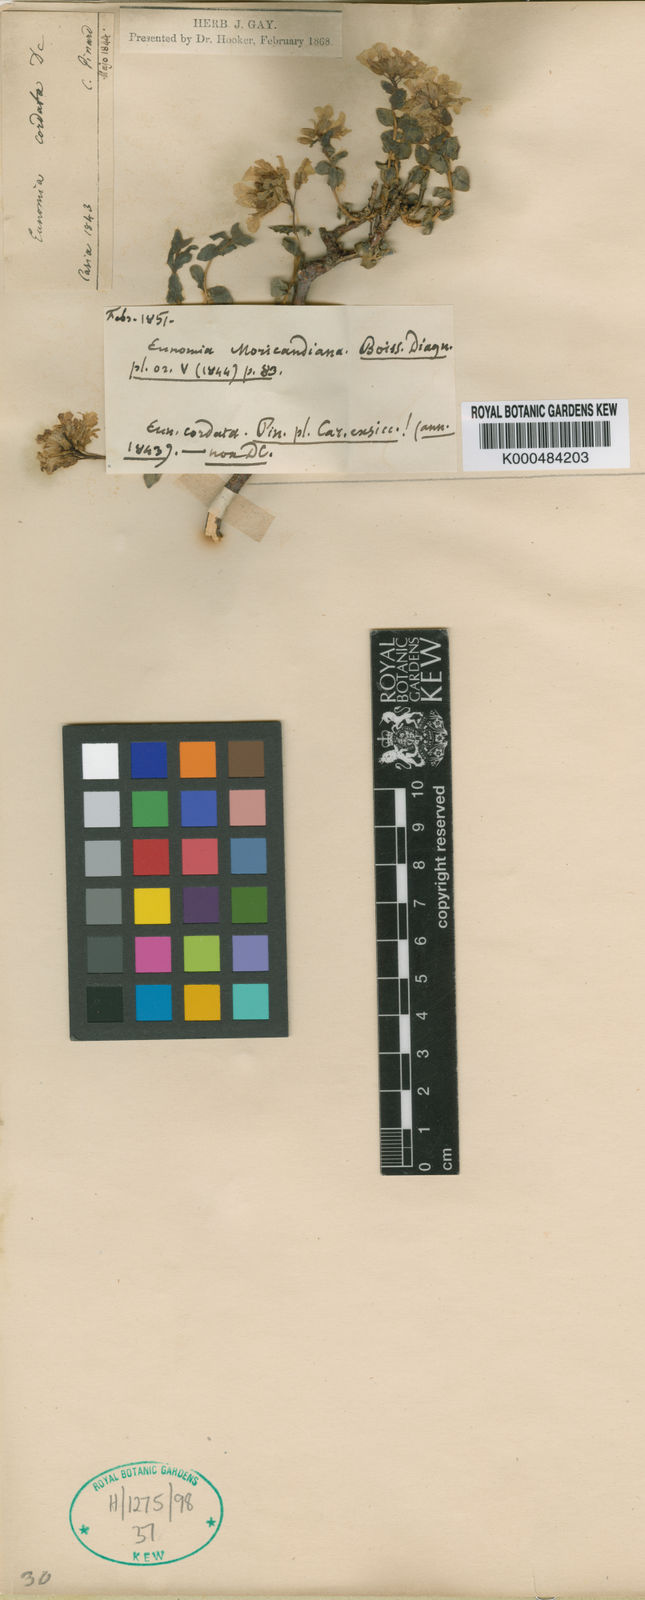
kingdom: Plantae
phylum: Tracheophyta
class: Magnoliopsida
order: Brassicales
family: Brassicaceae
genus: Aethionema
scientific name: Aethionema cordatum
